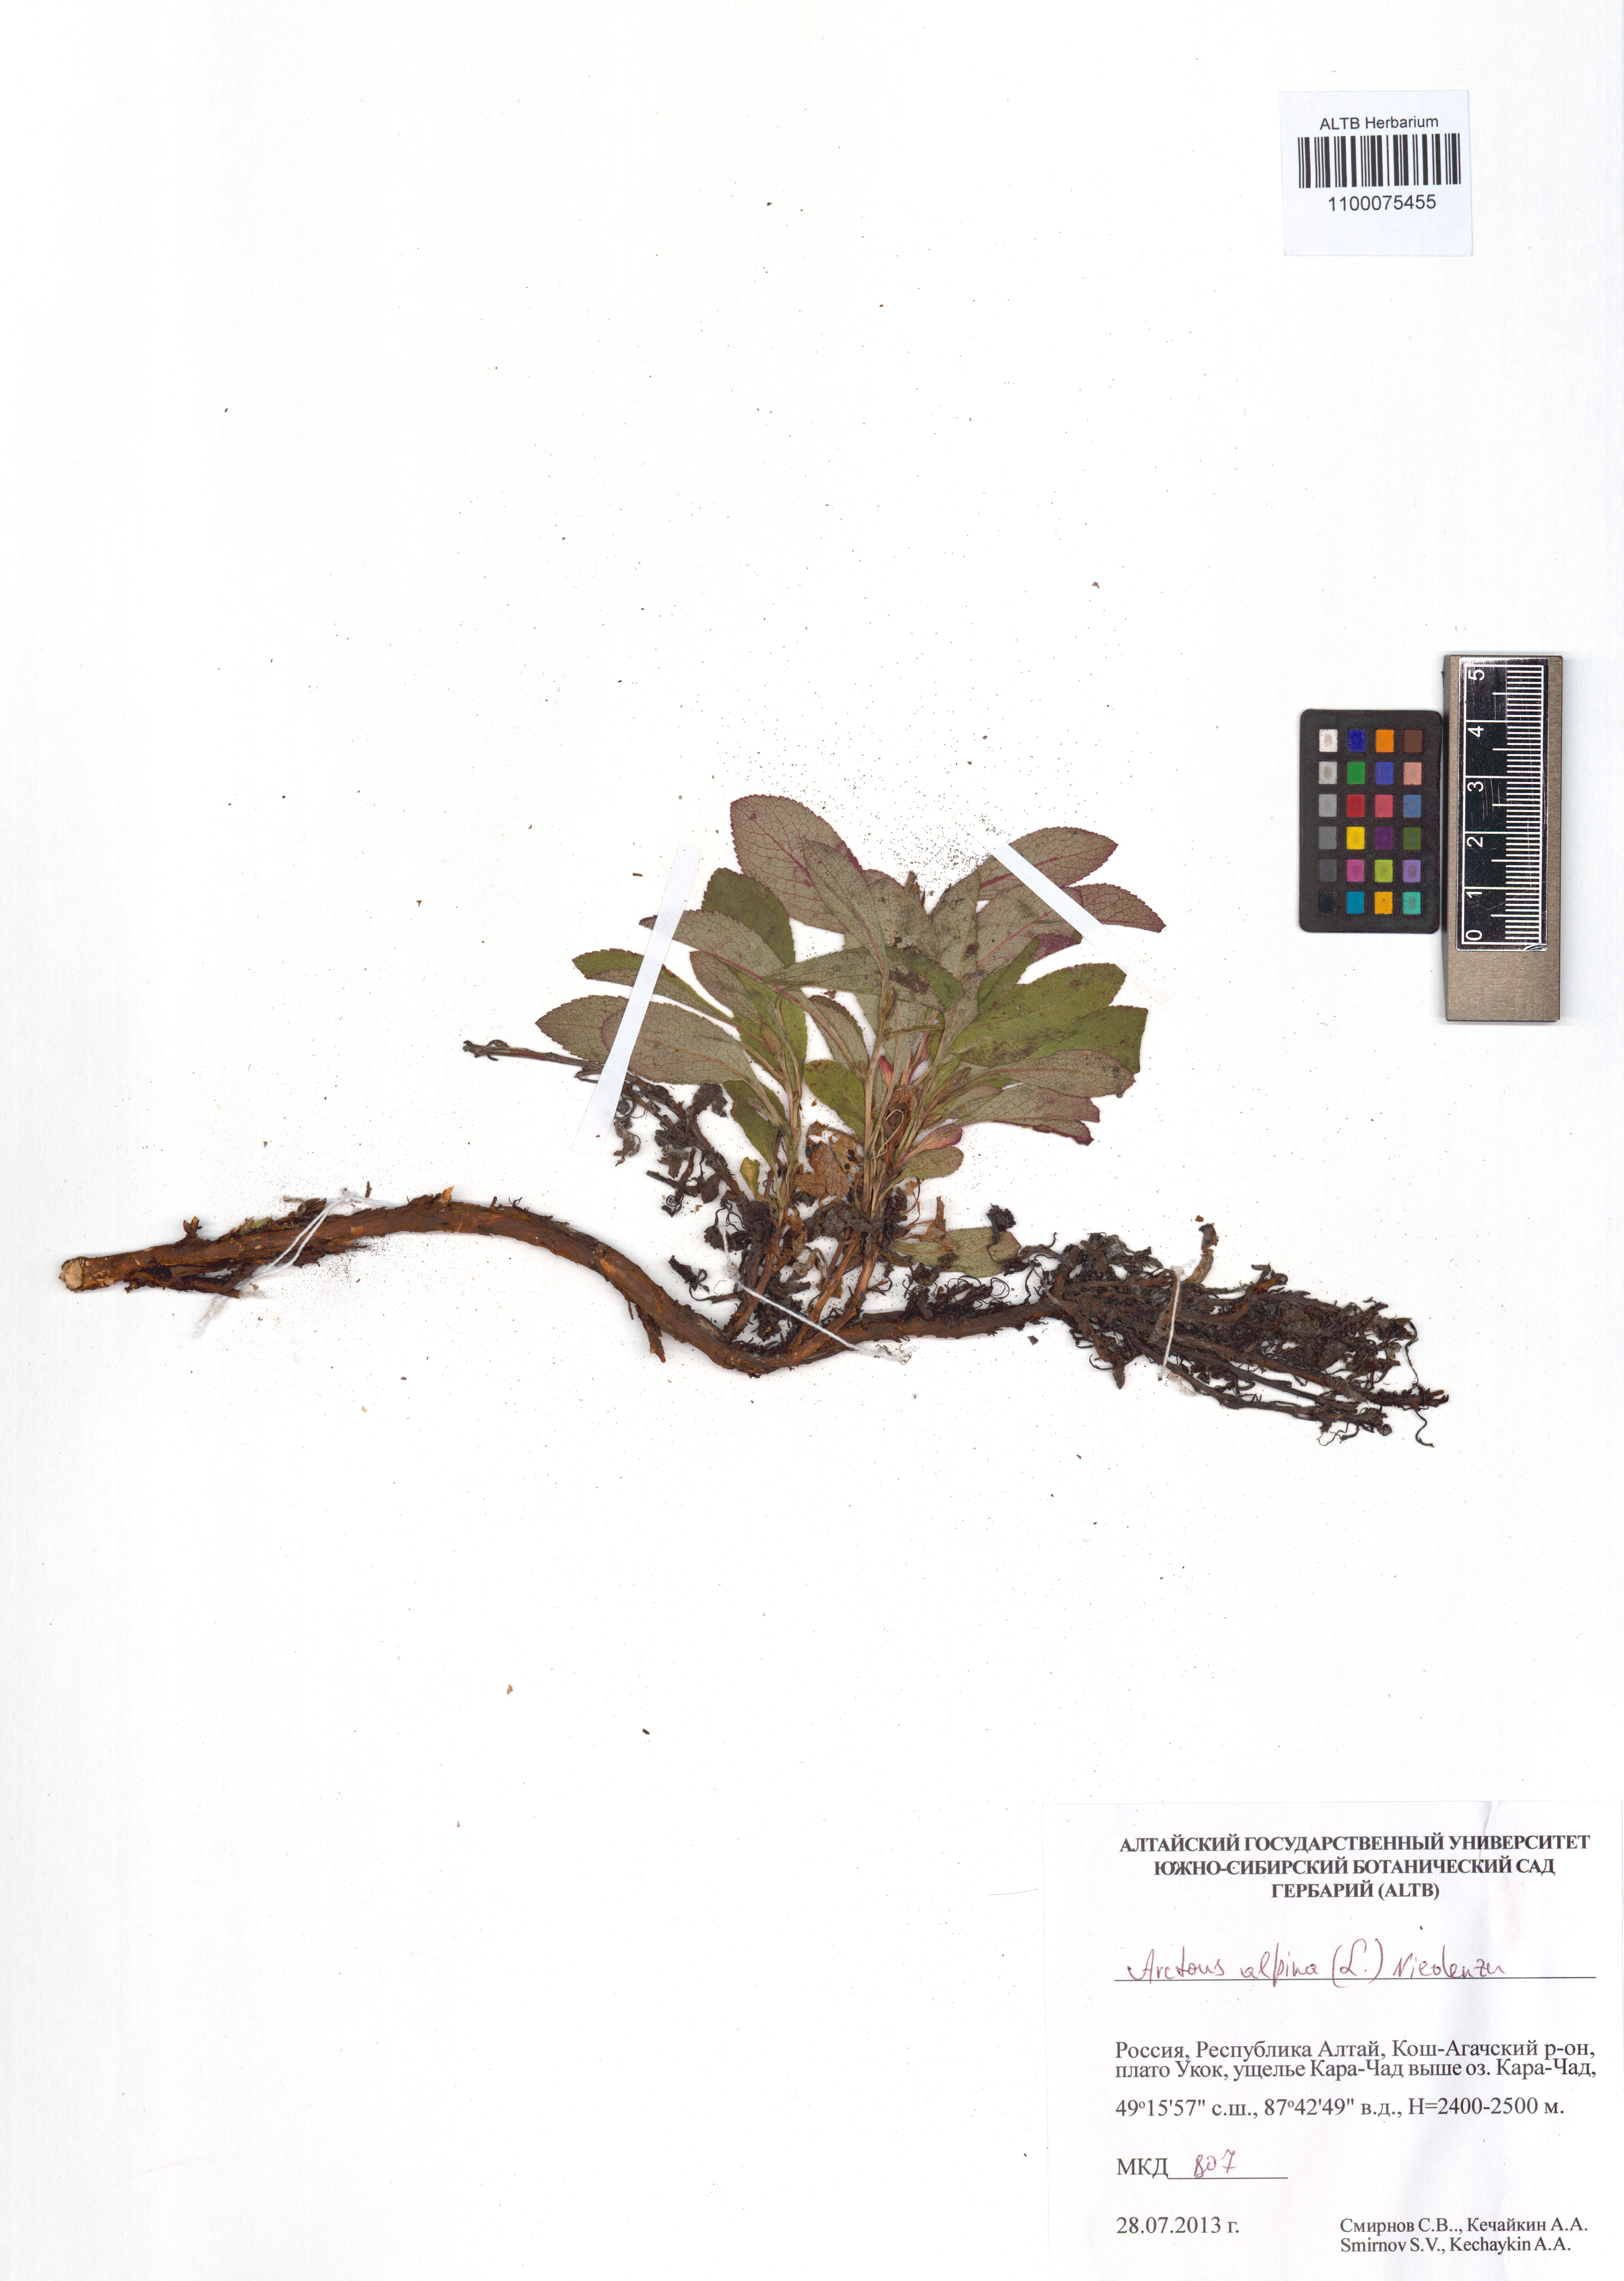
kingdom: Plantae
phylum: Tracheophyta
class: Magnoliopsida
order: Ericales
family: Ericaceae
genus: Arctostaphylos
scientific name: Arctostaphylos alpinus
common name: Alpine bearberry
